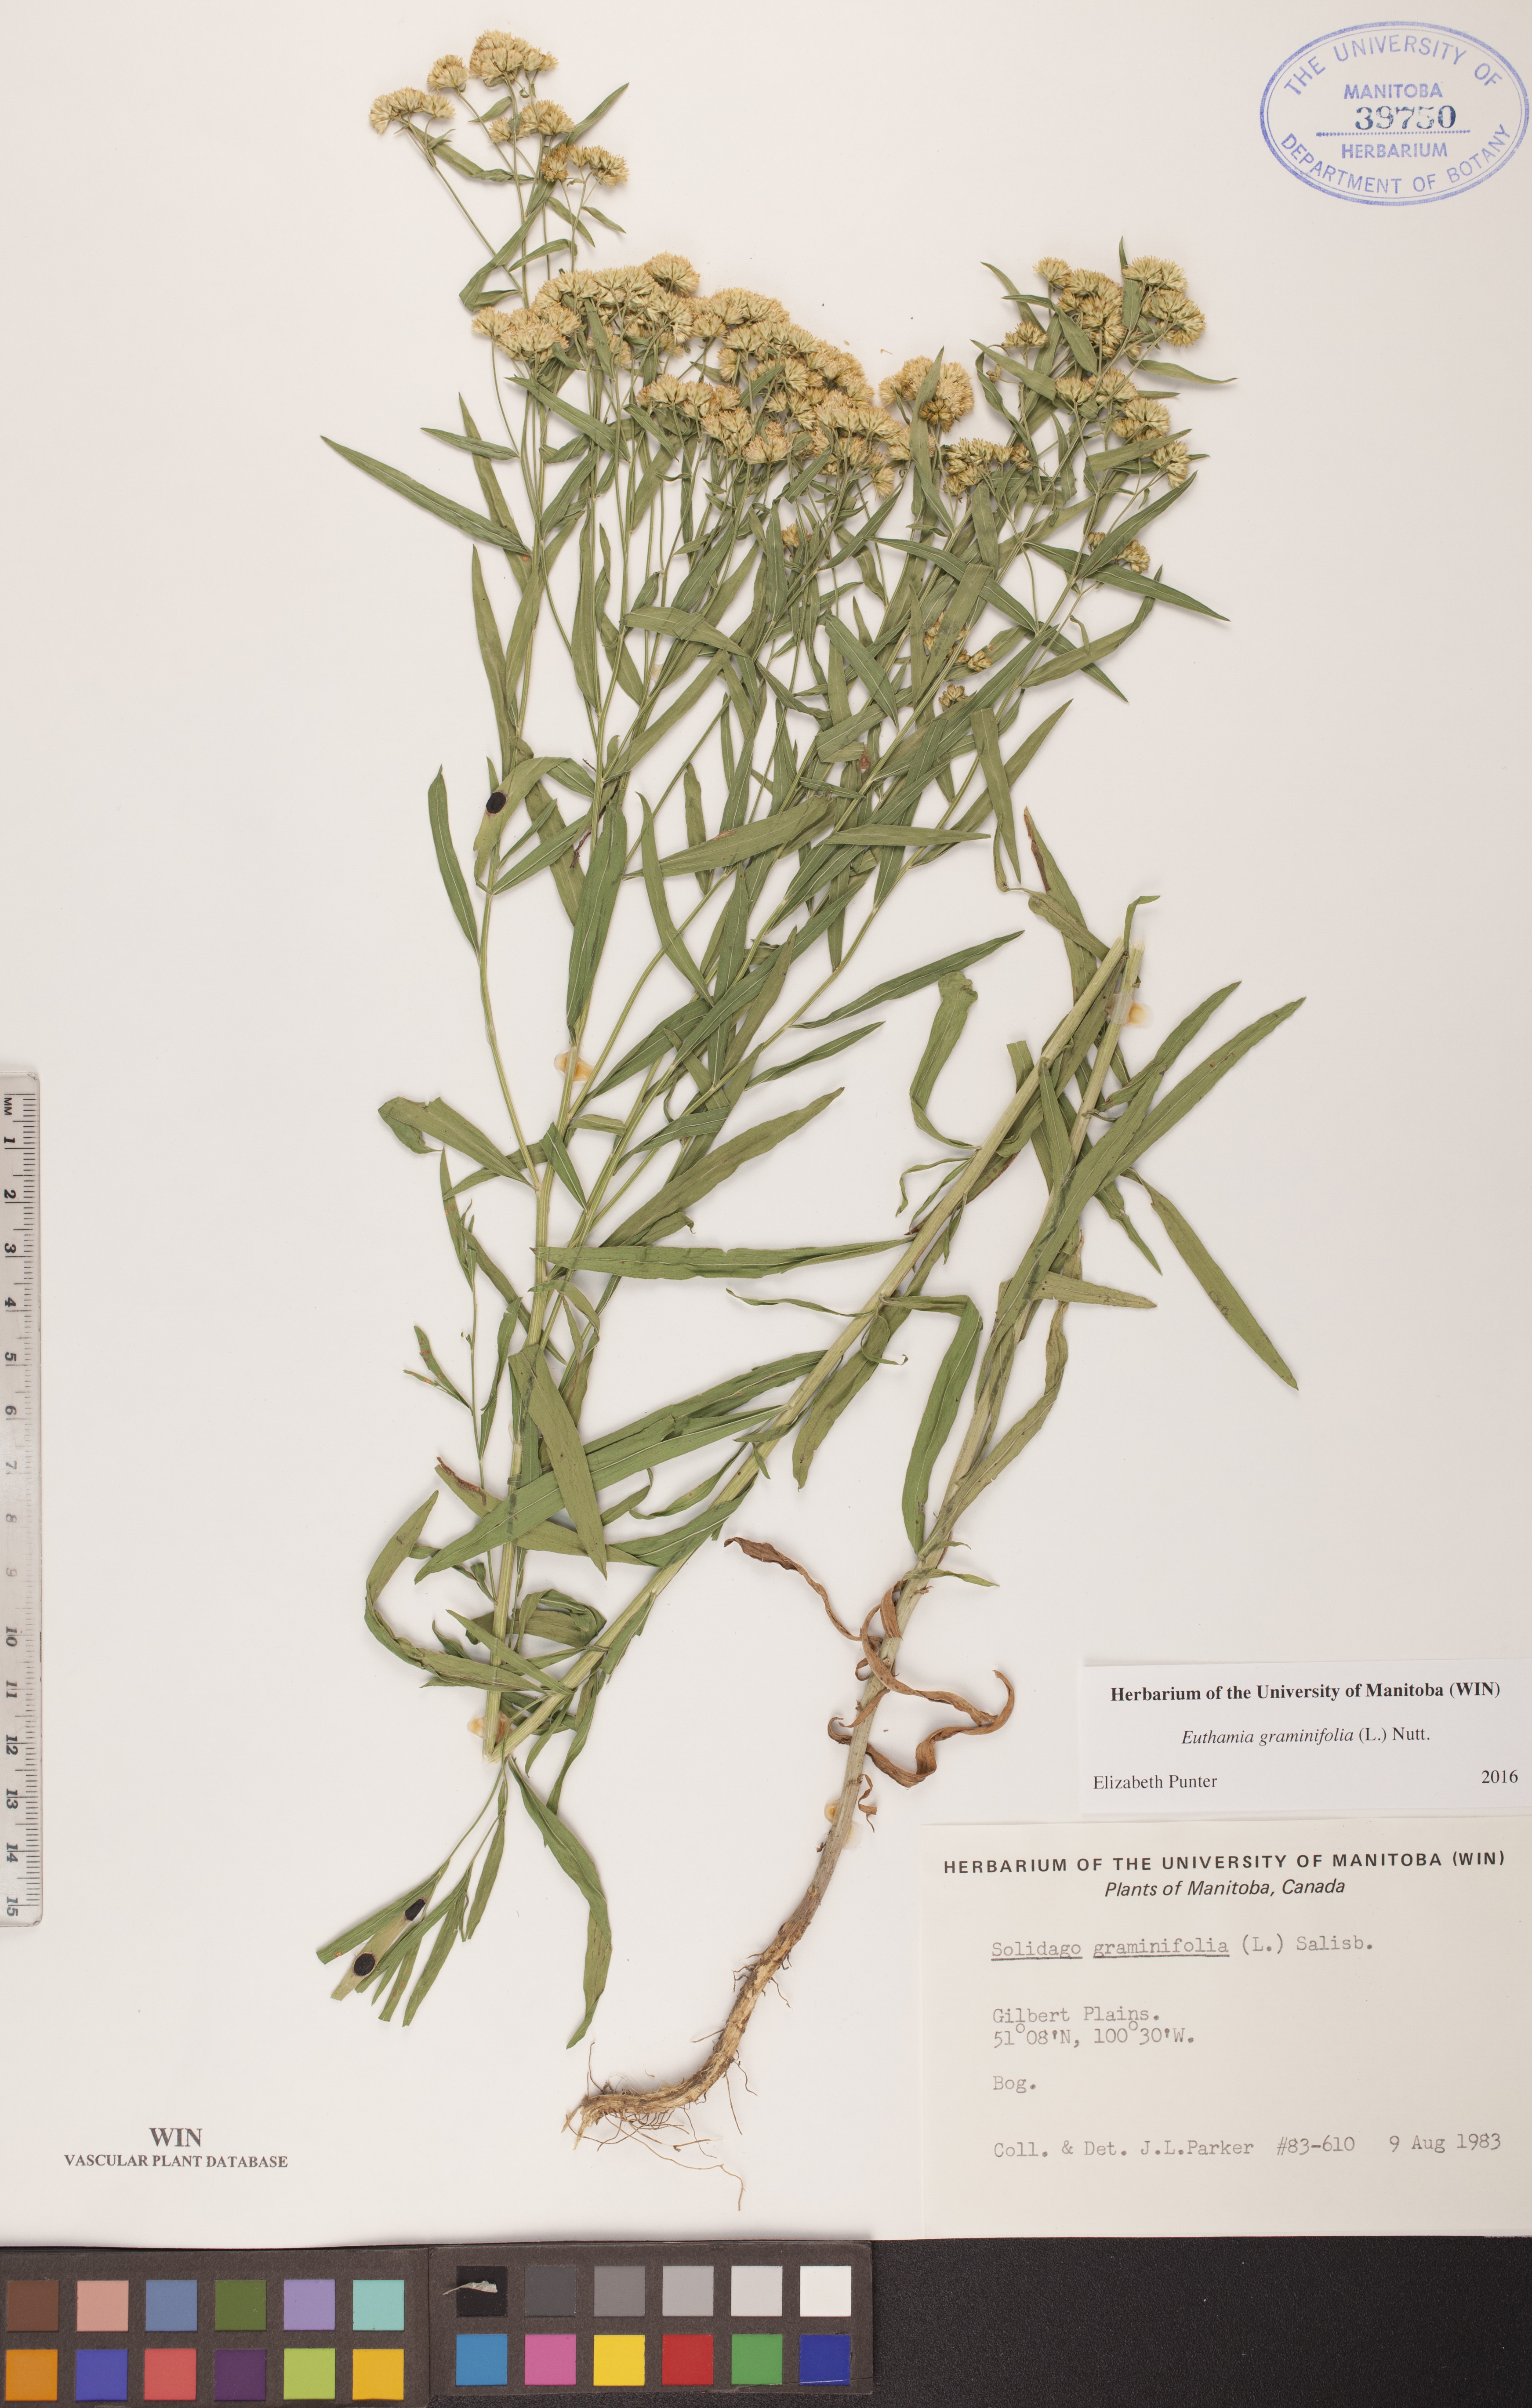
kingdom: Plantae
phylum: Tracheophyta
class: Magnoliopsida
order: Asterales
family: Asteraceae
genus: Euthamia
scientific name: Euthamia graminifolia
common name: Common goldentop
